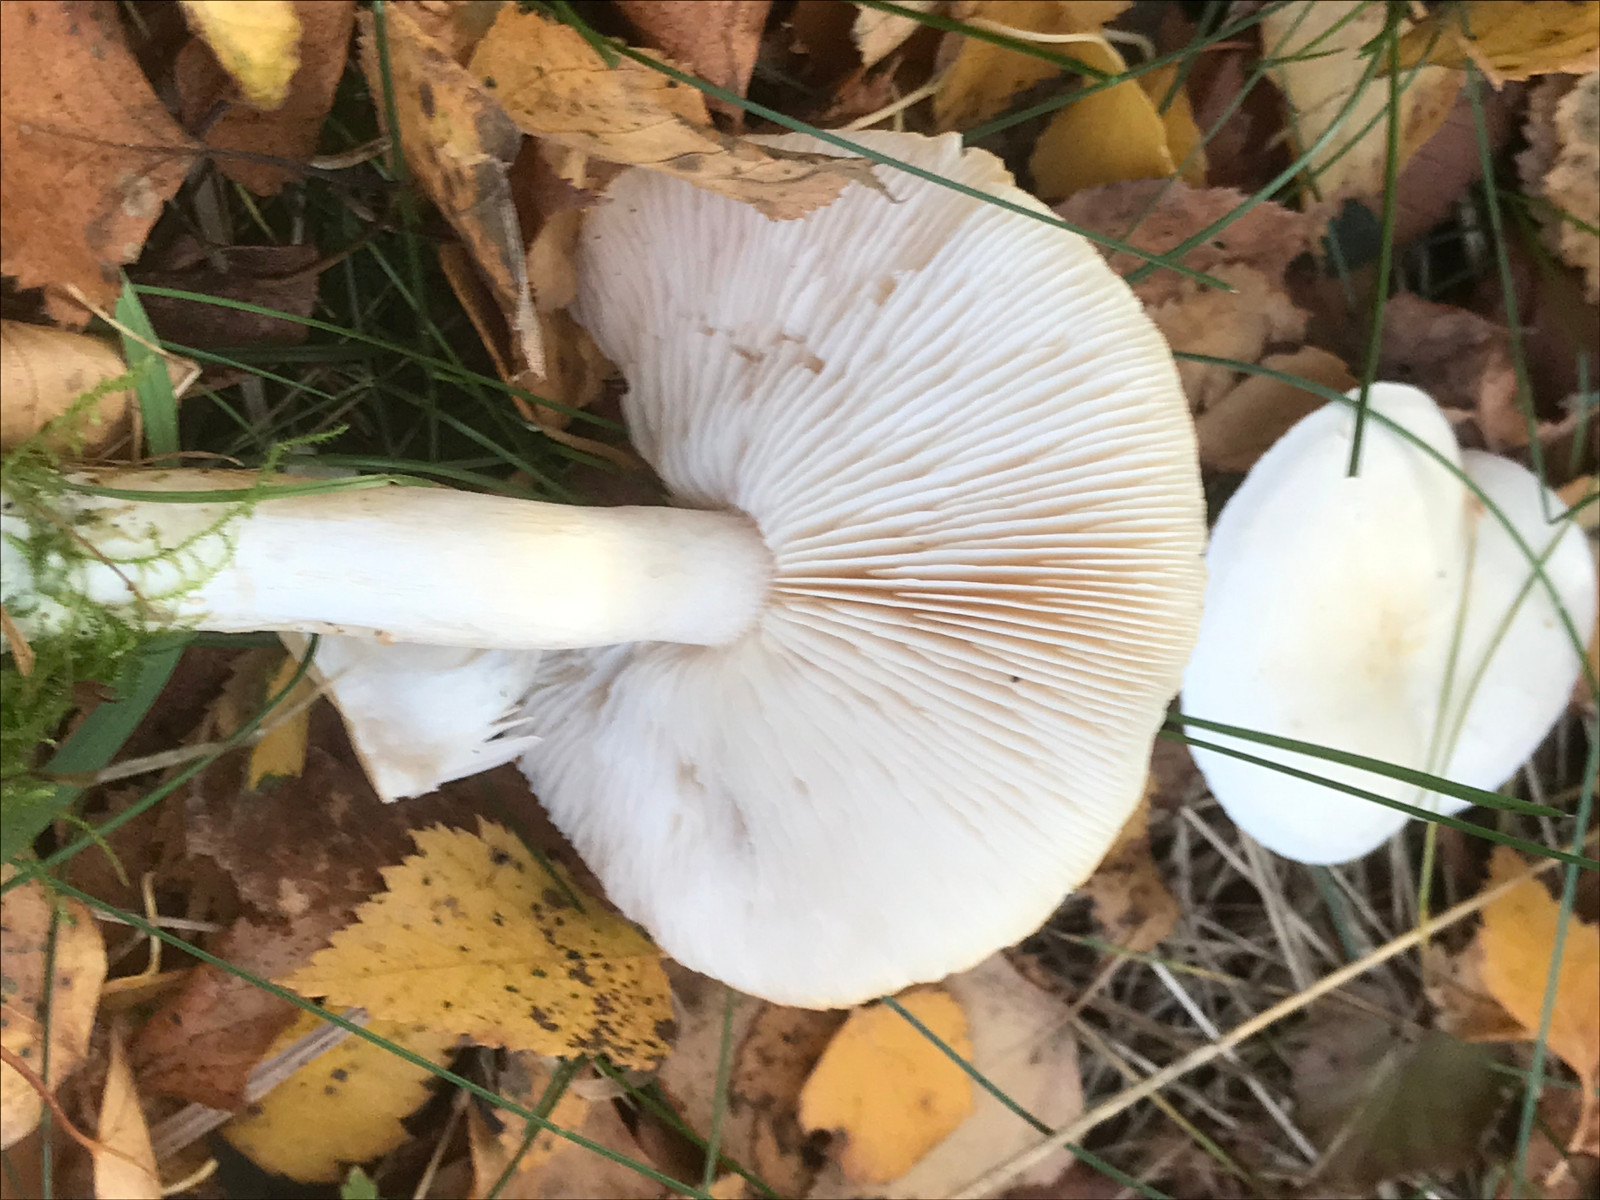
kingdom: Fungi
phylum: Basidiomycota
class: Agaricomycetes
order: Agaricales
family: Tricholomataceae
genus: Tricholoma
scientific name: Tricholoma stiparophyllum
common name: hvid ridderhat
